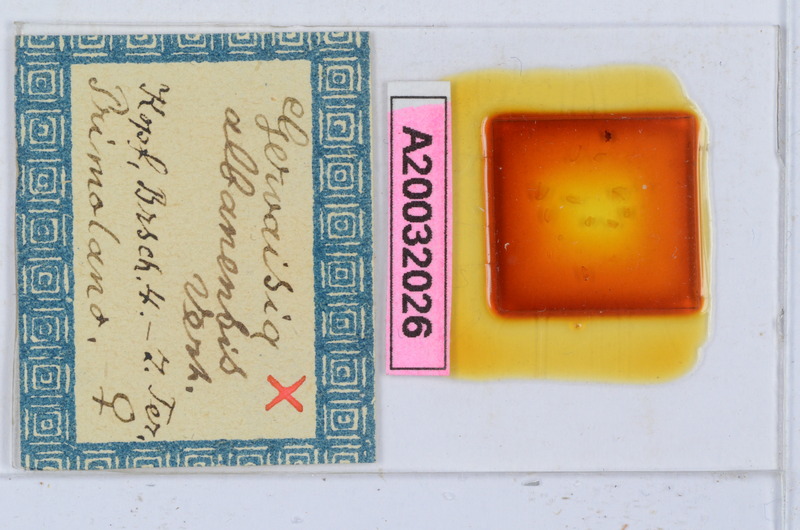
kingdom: Animalia
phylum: Arthropoda
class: Diplopoda
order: Glomerida
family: Glomeridae
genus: Trachysphaera
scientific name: Trachysphaera apenninorum
